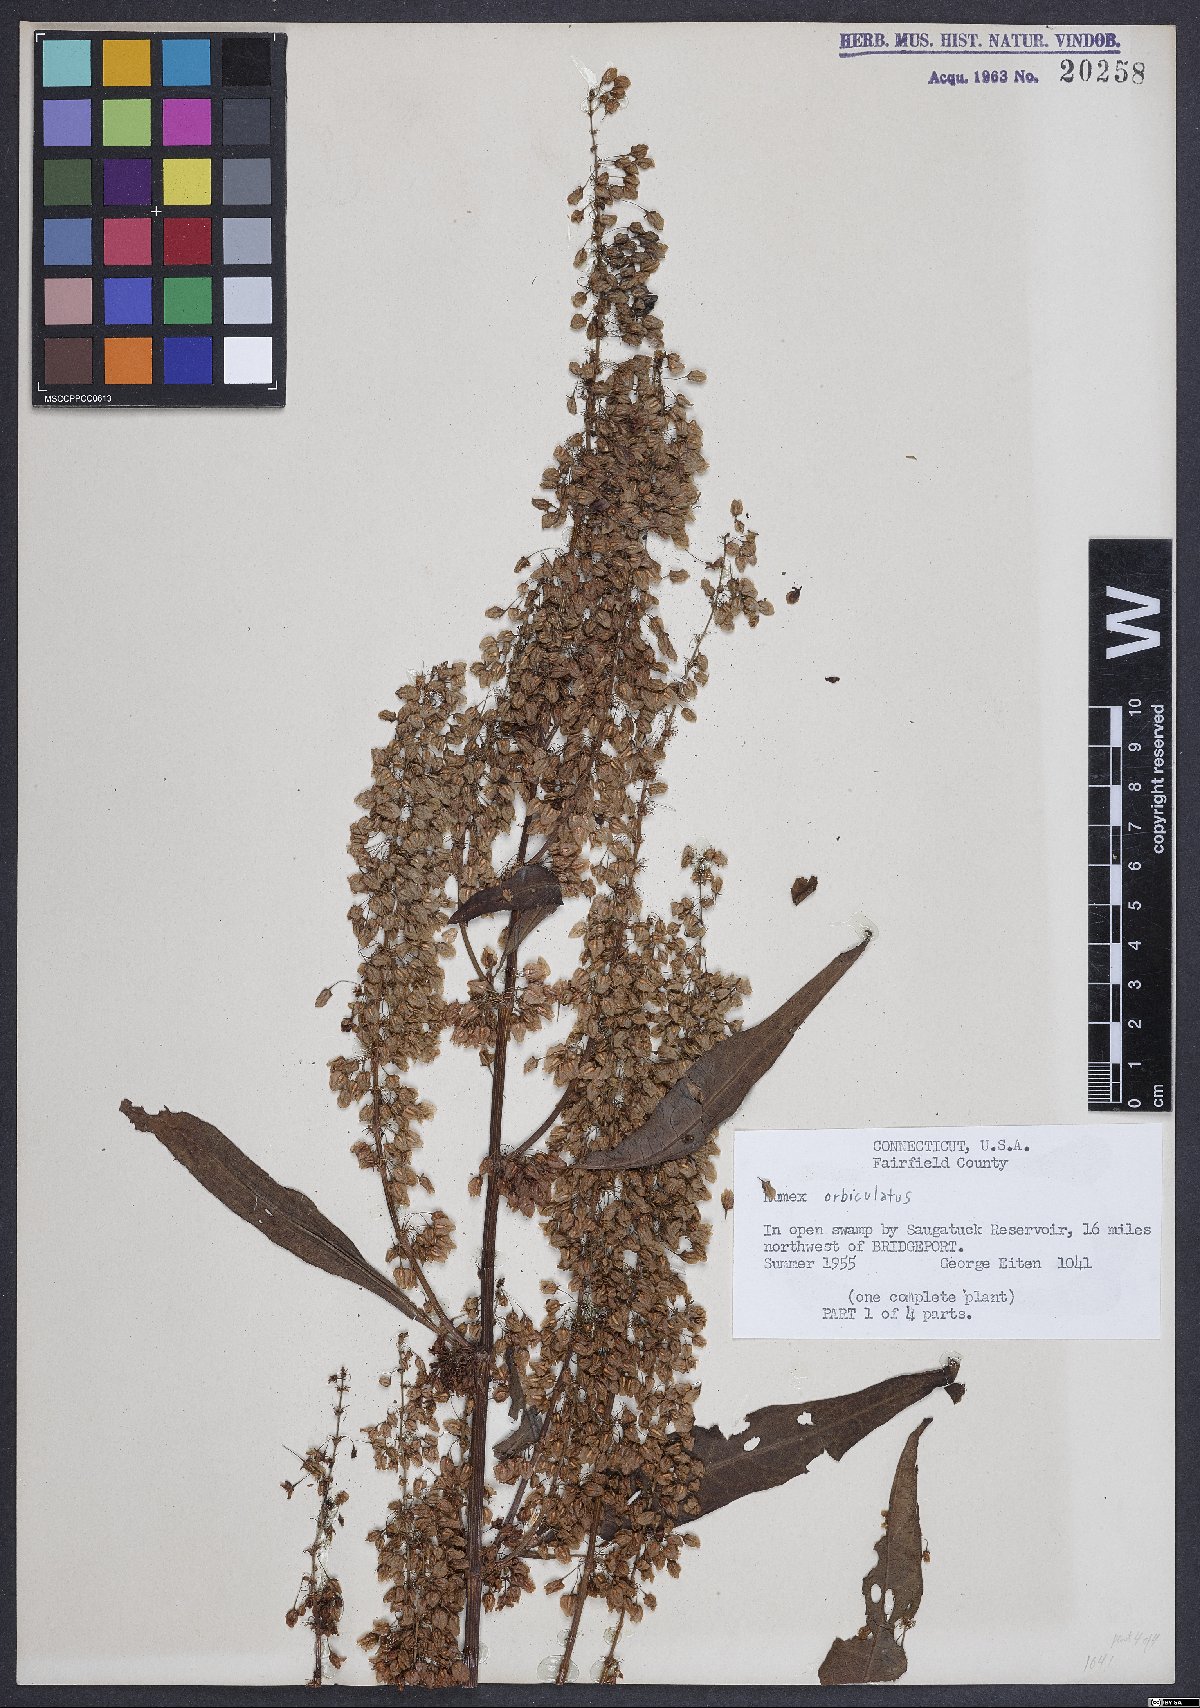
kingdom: Plantae
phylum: Tracheophyta
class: Magnoliopsida
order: Caryophyllales
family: Polygonaceae
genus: Rumex
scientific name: Rumex orbiculatus
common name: Greater water dock
